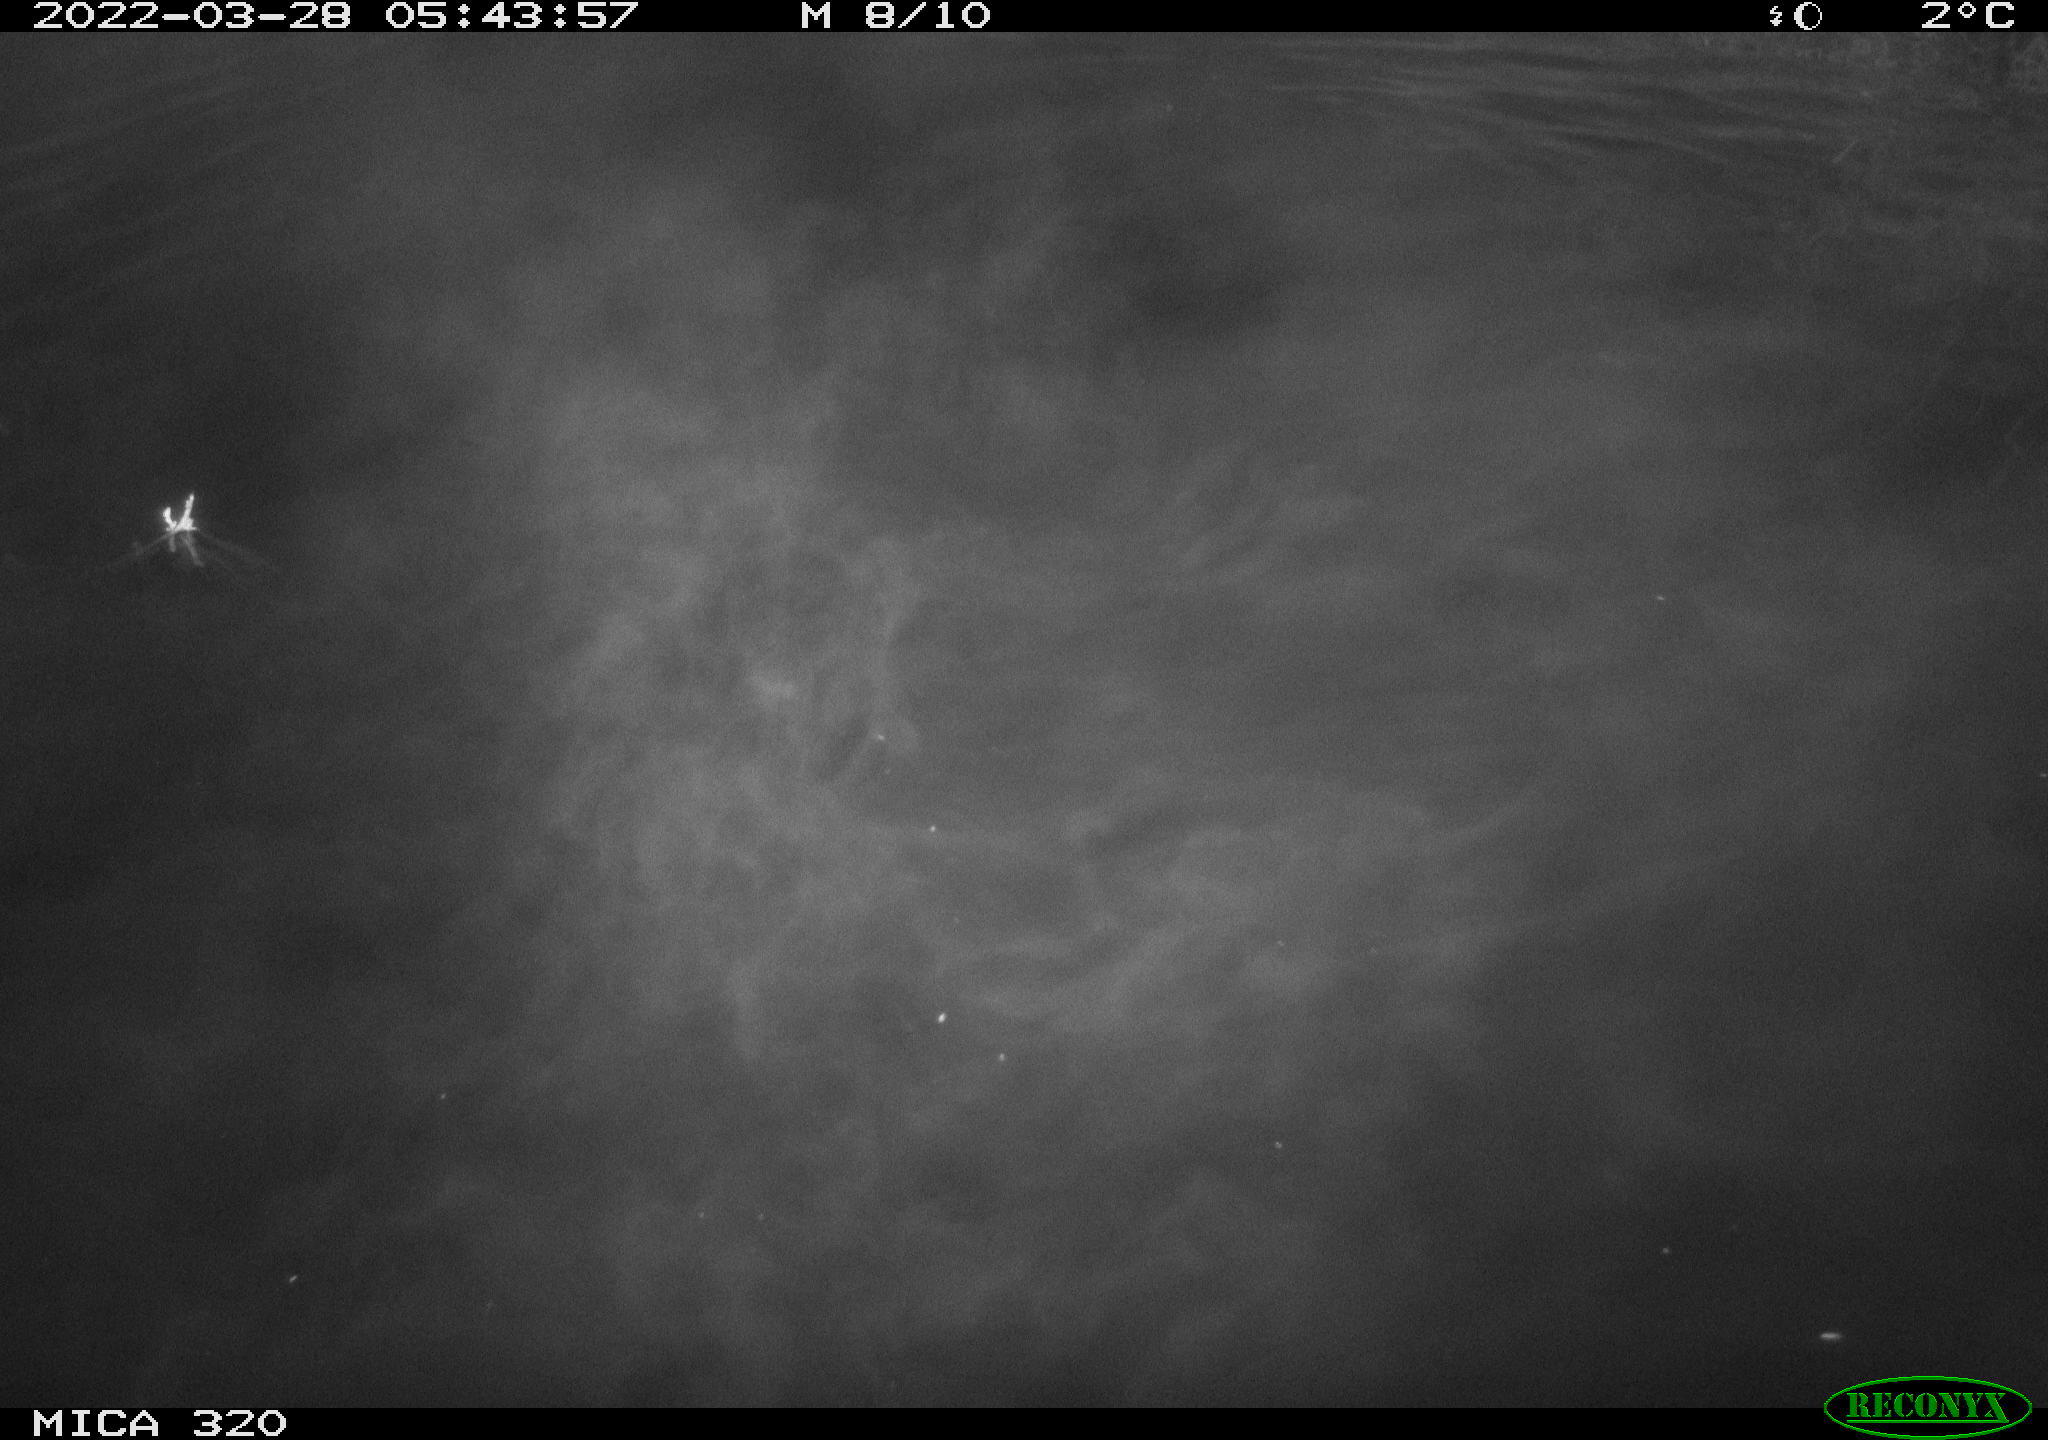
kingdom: Animalia
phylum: Chordata
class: Aves
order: Anseriformes
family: Anatidae
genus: Anas
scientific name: Anas platyrhynchos
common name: Mallard
